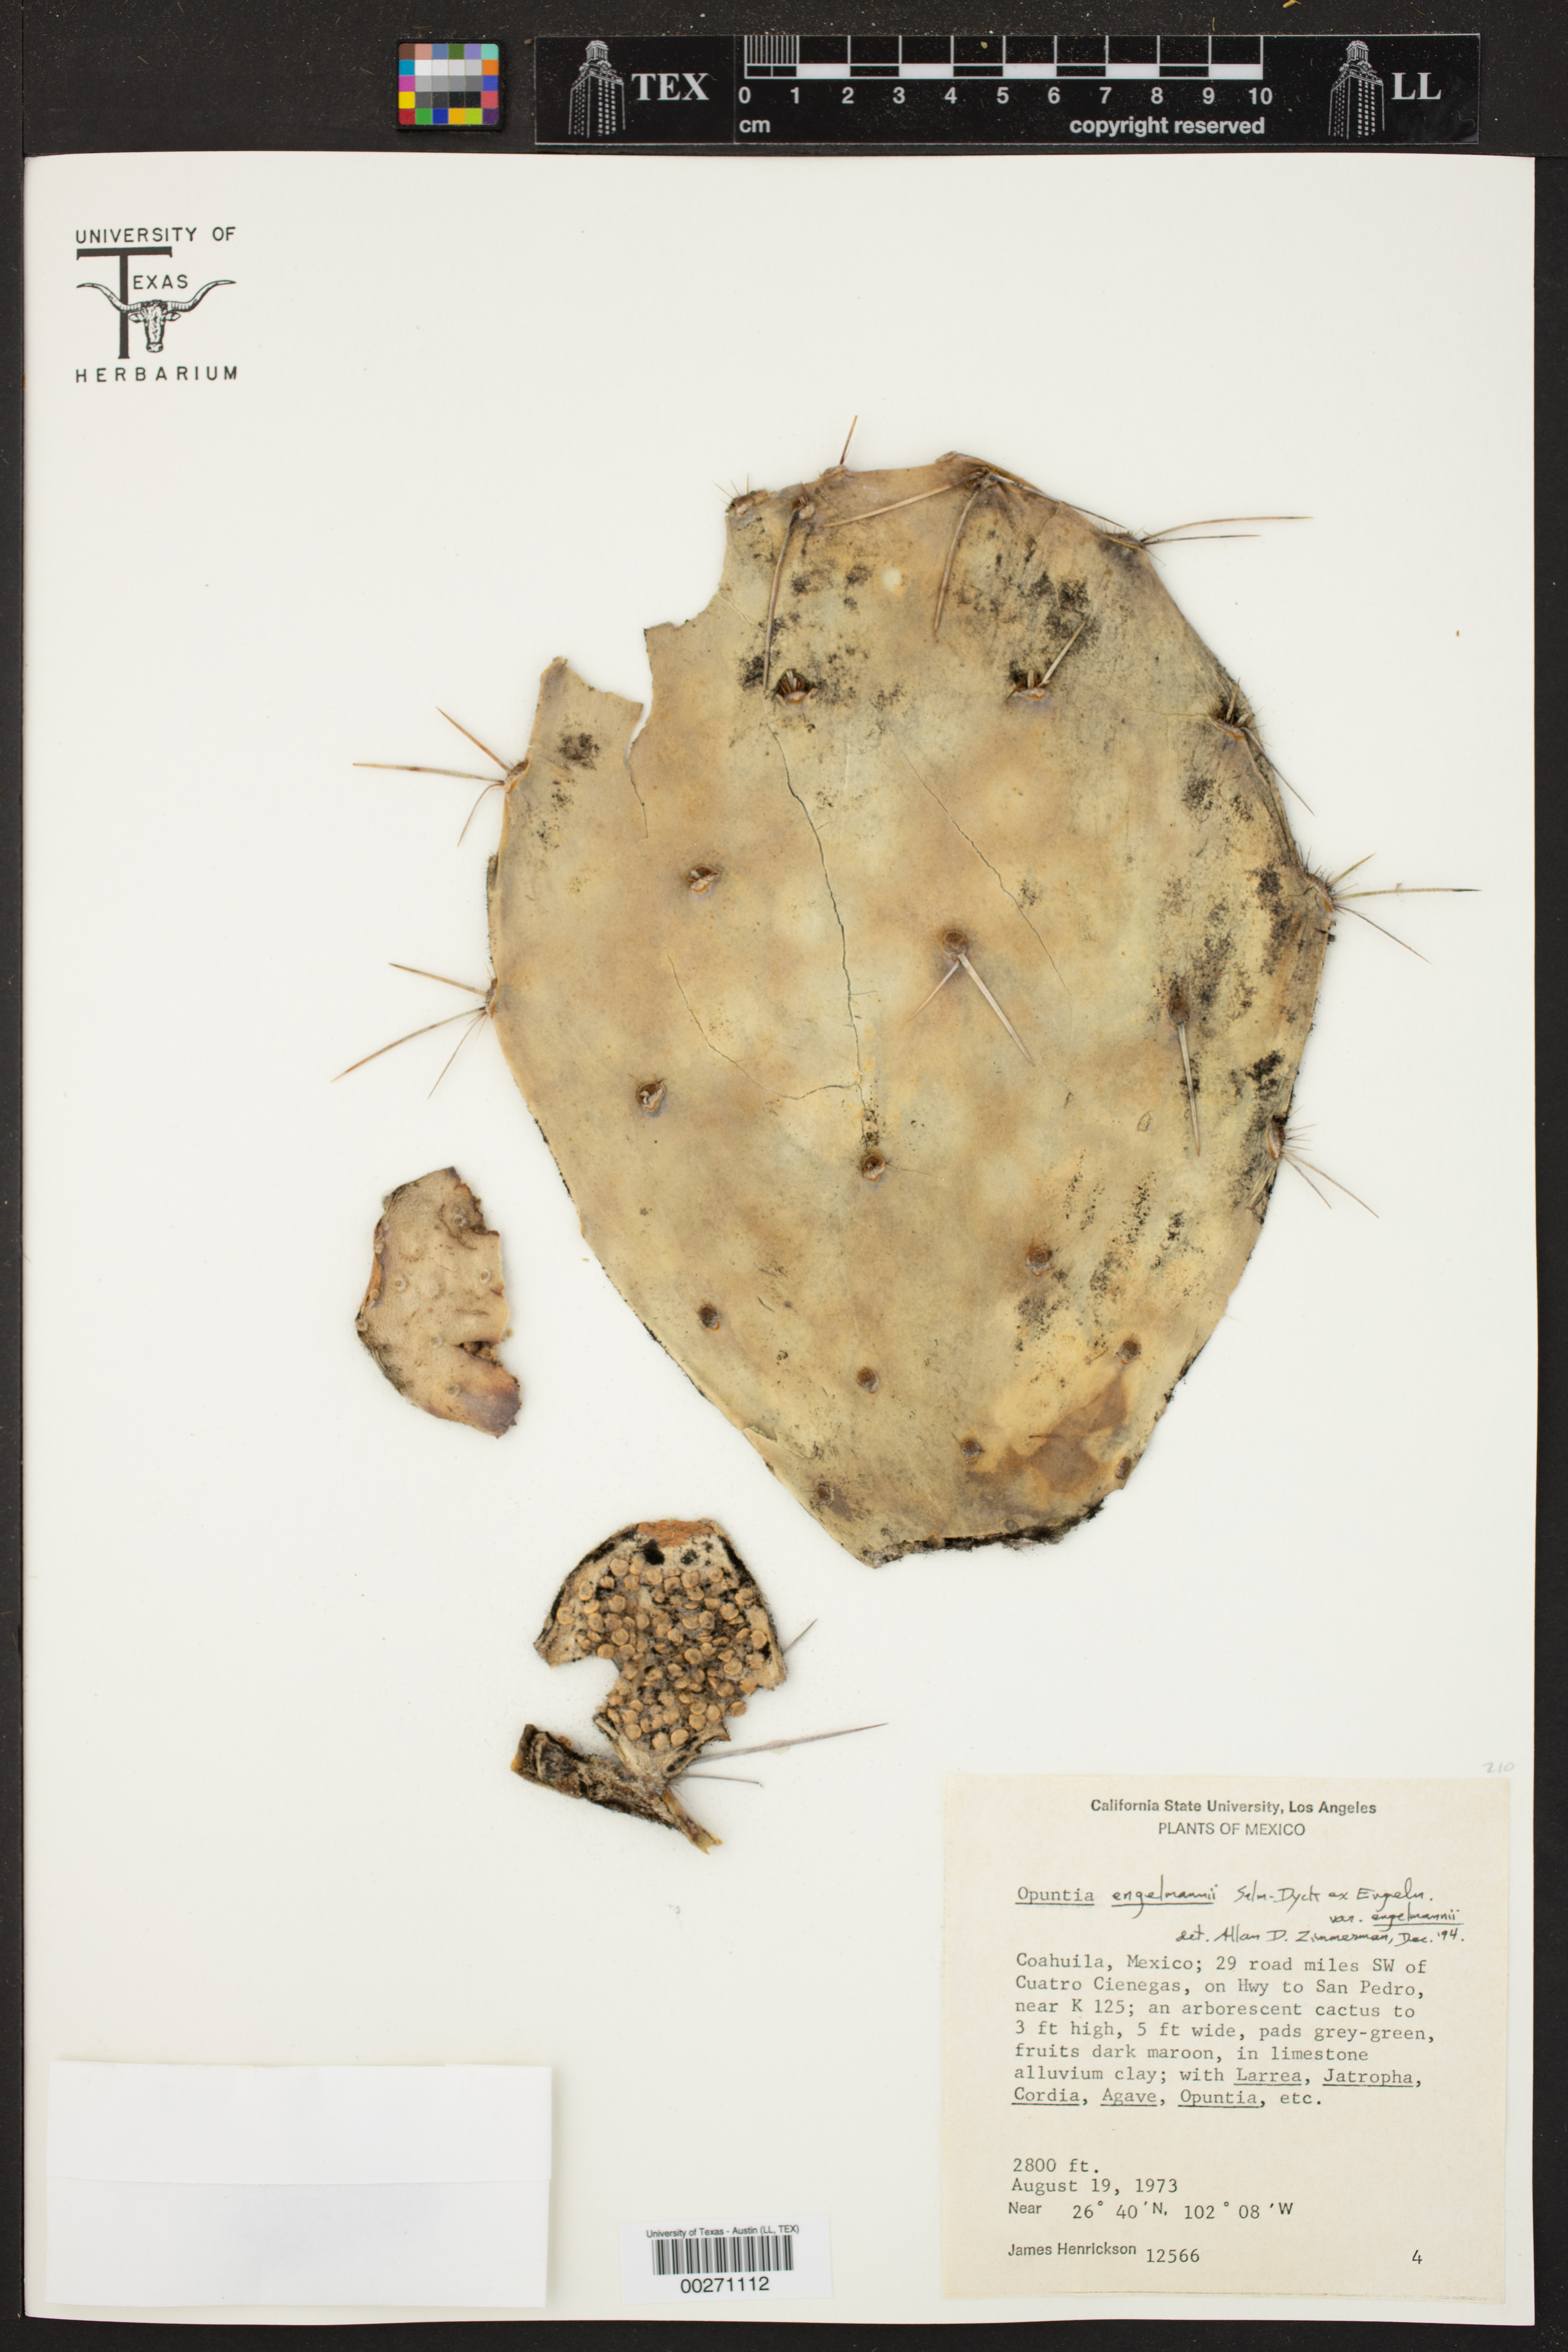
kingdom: Plantae
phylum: Tracheophyta
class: Magnoliopsida
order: Caryophyllales
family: Cactaceae
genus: Opuntia
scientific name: Opuntia engelmannii
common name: Cactus-apple
